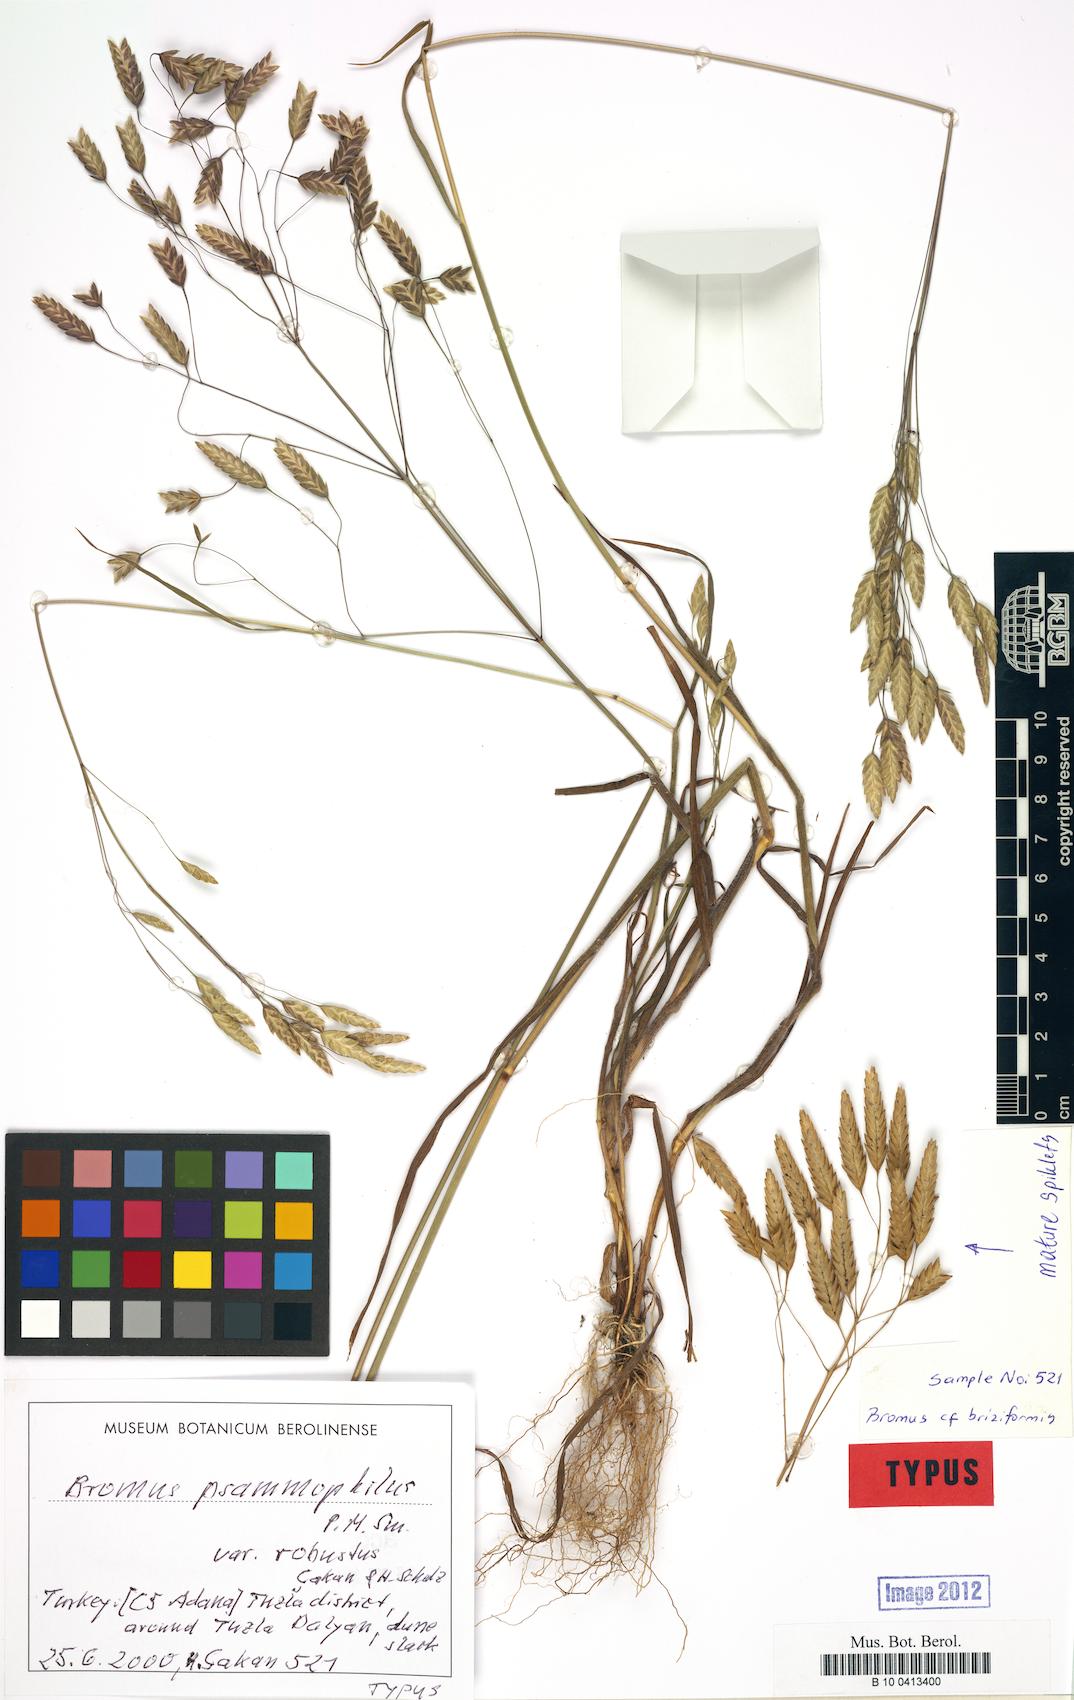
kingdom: Plantae
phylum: Tracheophyta
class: Liliopsida
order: Poales
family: Poaceae
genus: Bromus
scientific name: Bromus psammophilus
